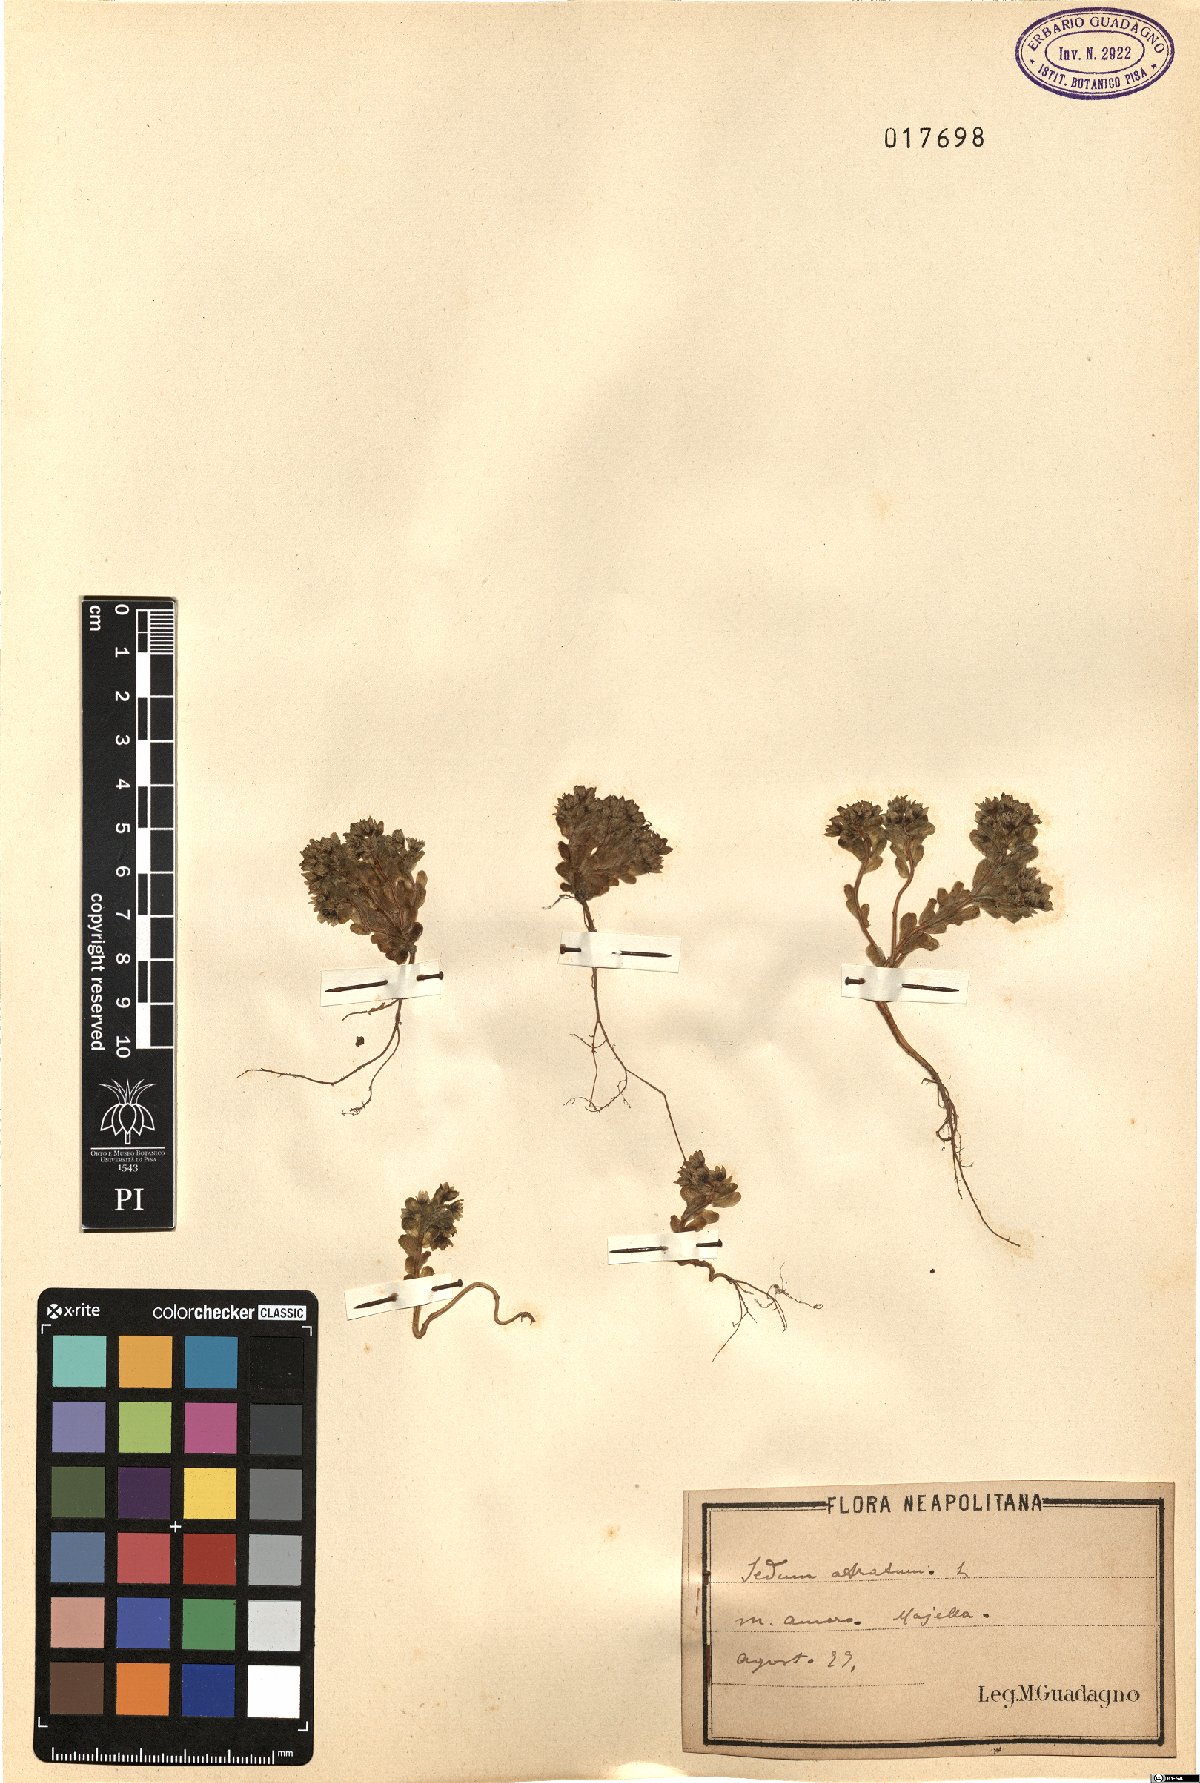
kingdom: Plantae
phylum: Tracheophyta
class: Magnoliopsida
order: Saxifragales
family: Crassulaceae
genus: Sedum
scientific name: Sedum atratum
